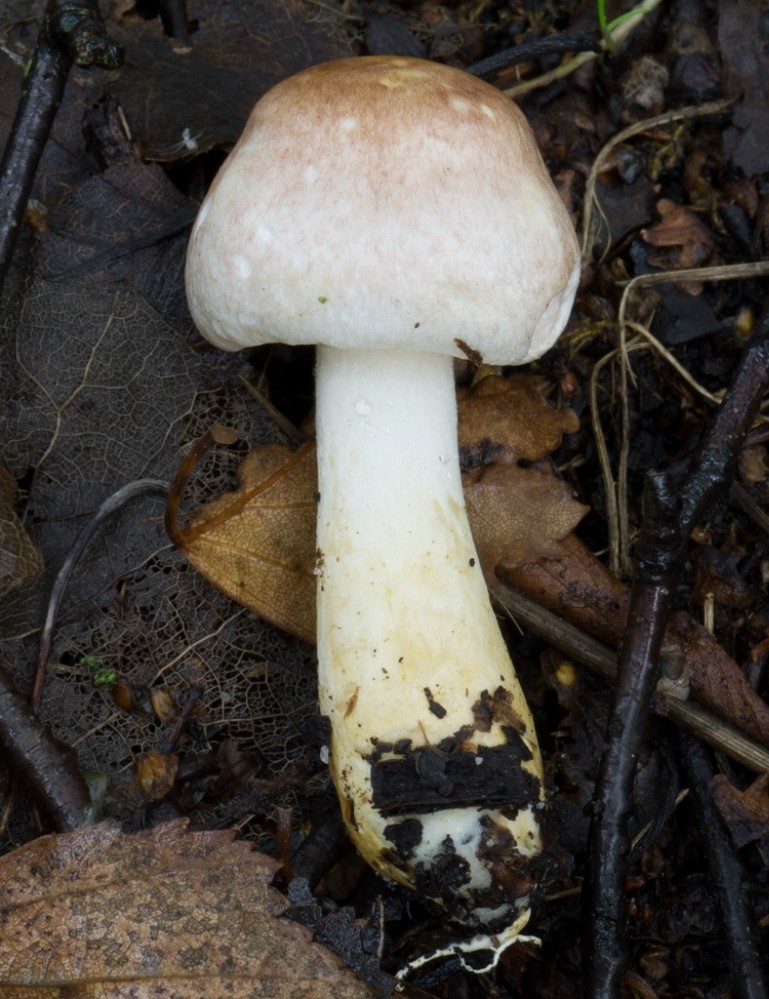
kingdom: Fungi
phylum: Basidiomycota
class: Agaricomycetes
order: Agaricales
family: Agaricaceae
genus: Agaricus
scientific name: Agaricus dulcidulus
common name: blegrød champignon
